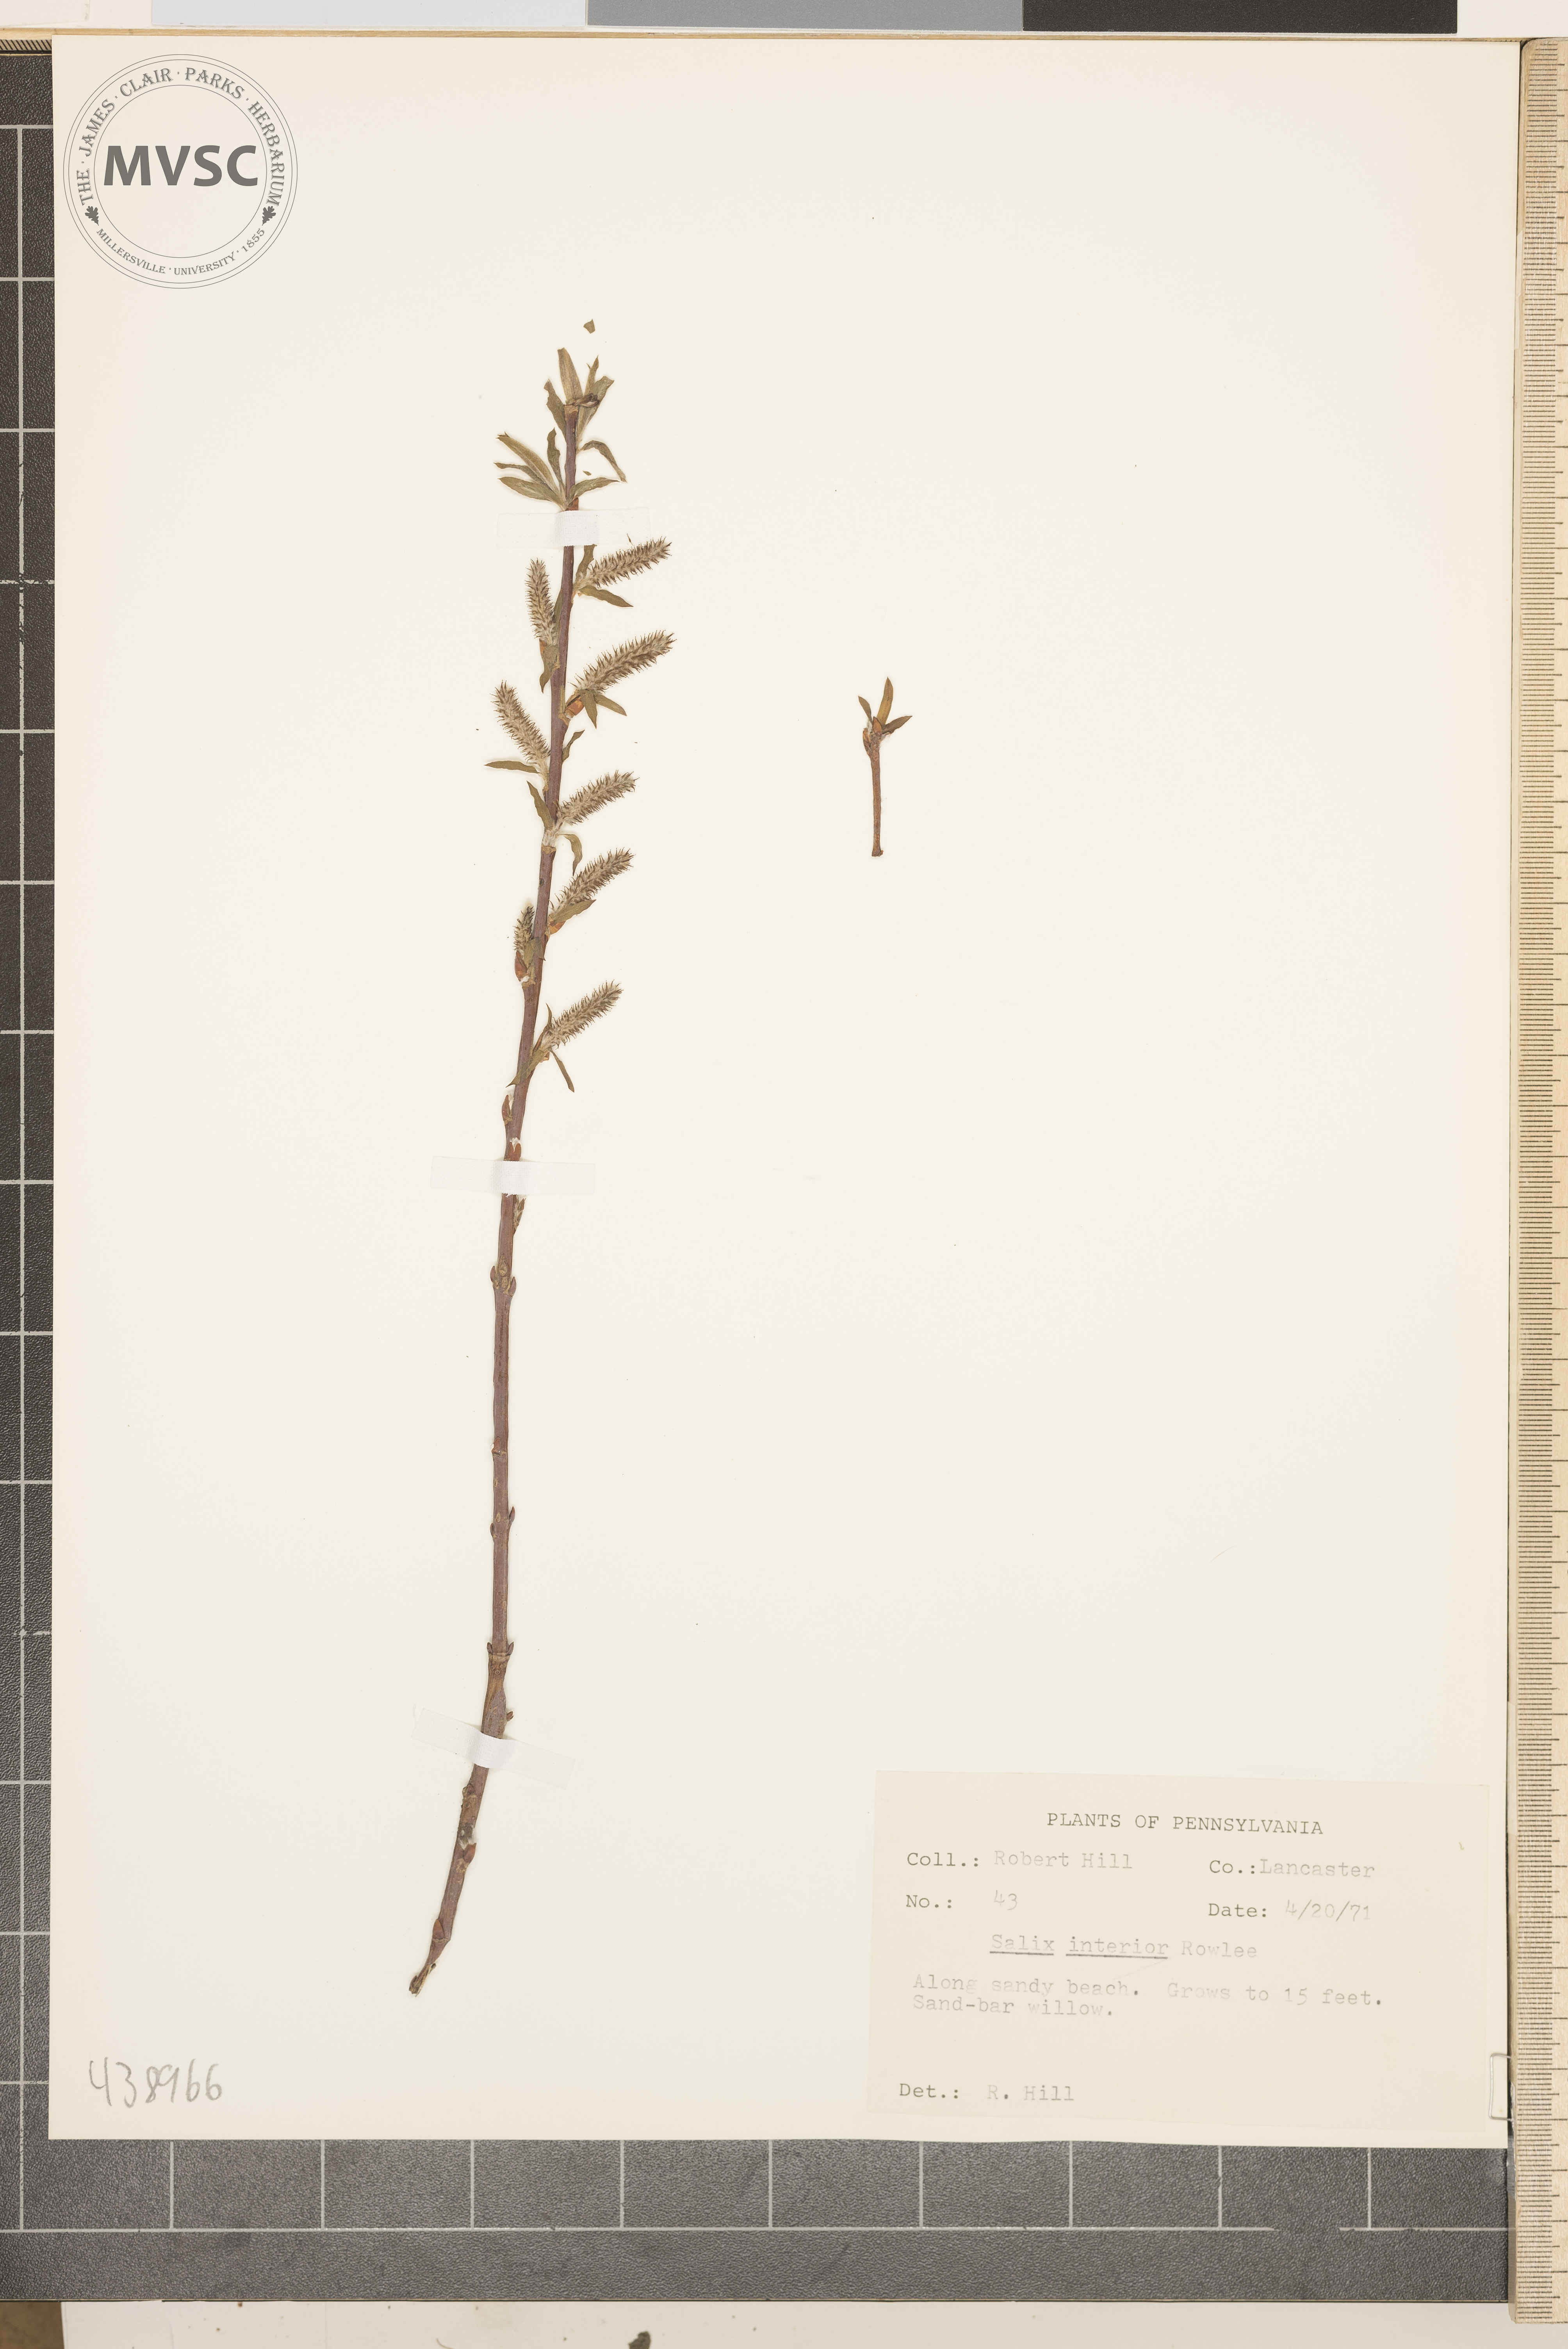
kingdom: Plantae
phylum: Tracheophyta
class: Magnoliopsida
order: Malpighiales
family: Salicaceae
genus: Salix
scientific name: Salix interior
